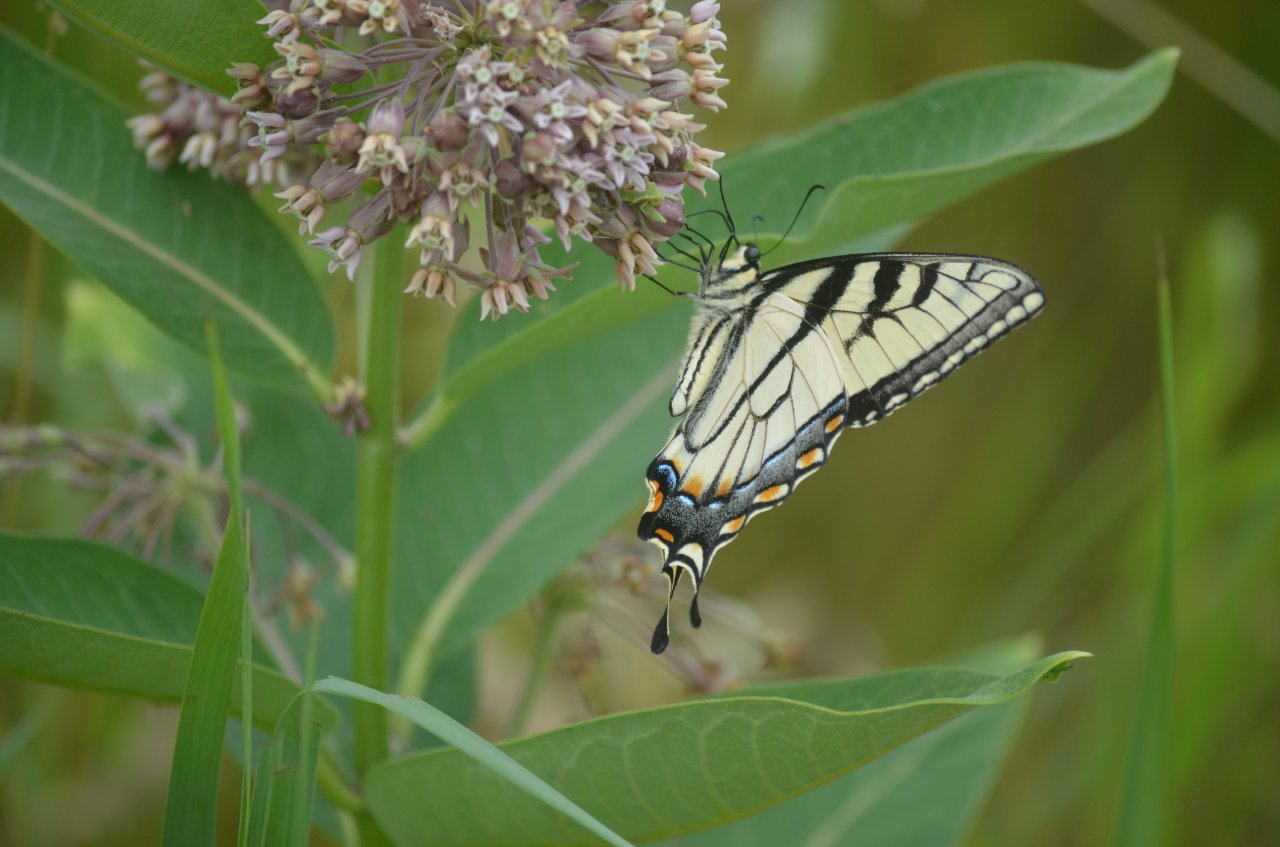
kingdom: Animalia
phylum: Arthropoda
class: Insecta
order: Lepidoptera
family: Papilionidae
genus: Pterourus
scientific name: Pterourus glaucus
